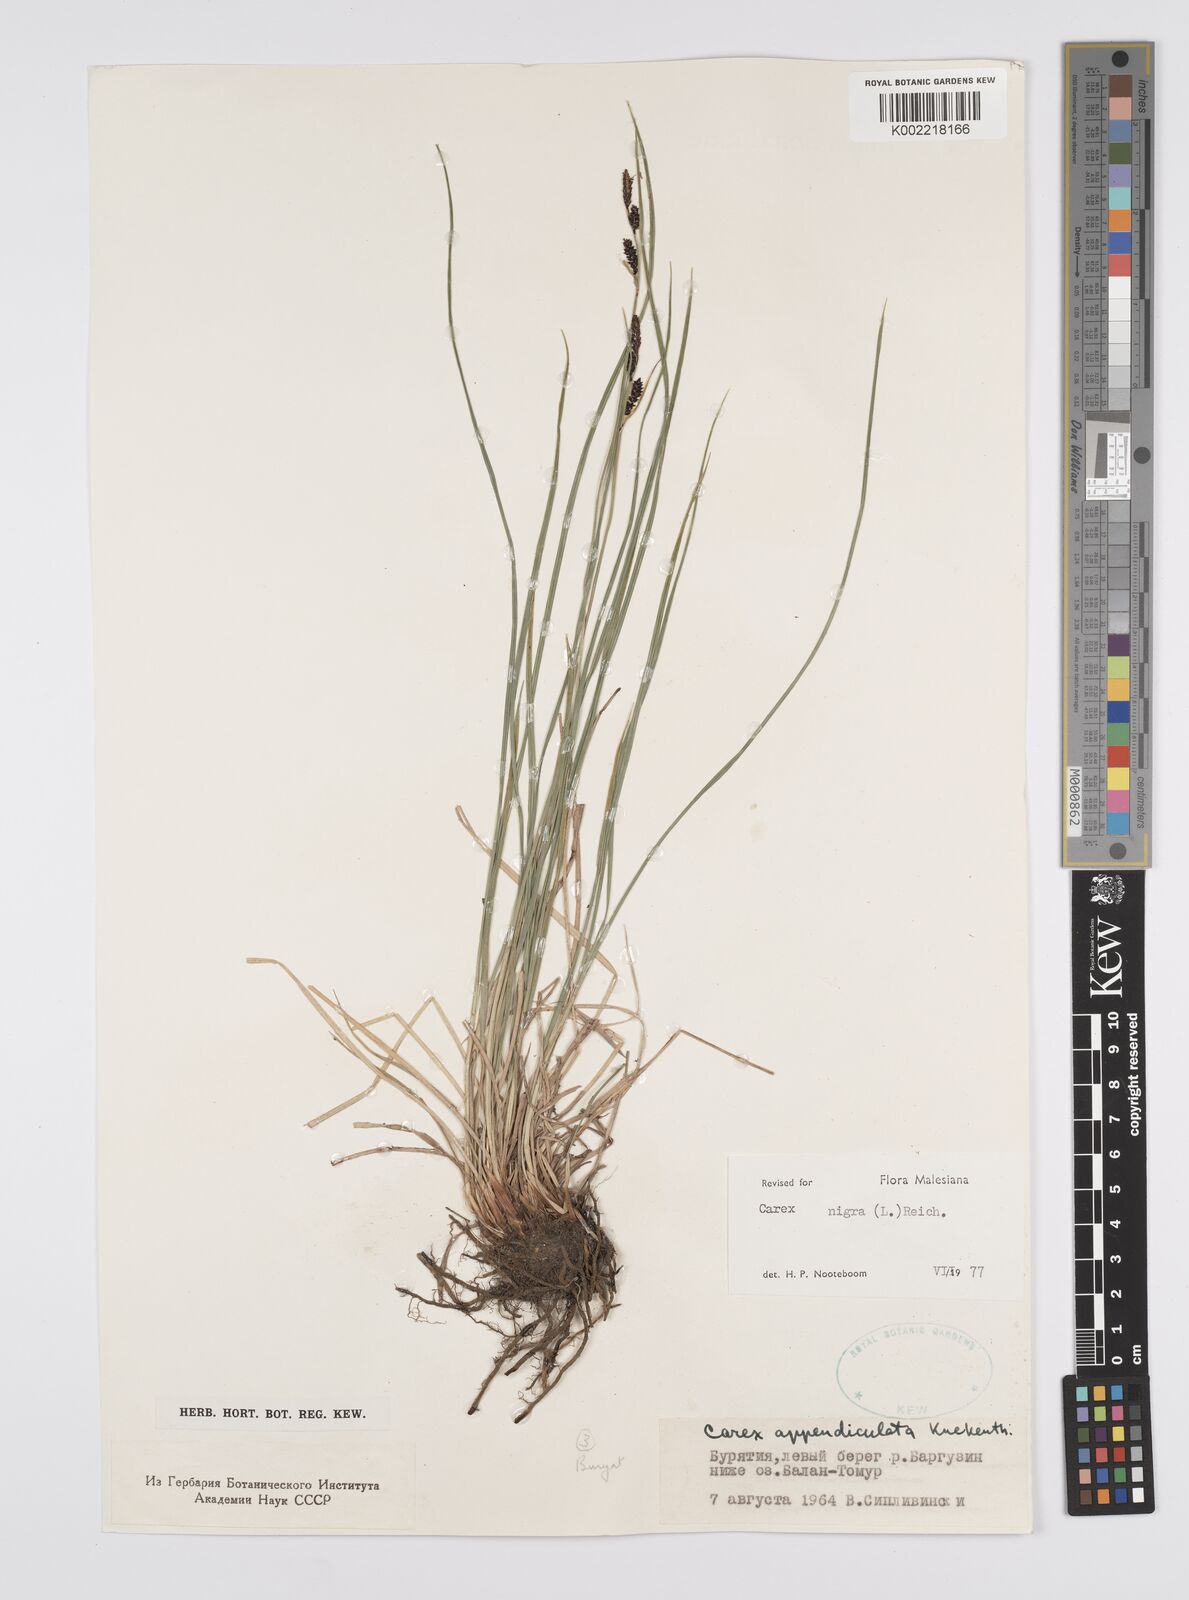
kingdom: Plantae
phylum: Tracheophyta
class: Liliopsida
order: Poales
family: Cyperaceae
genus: Carex
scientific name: Carex nigra
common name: Common sedge
